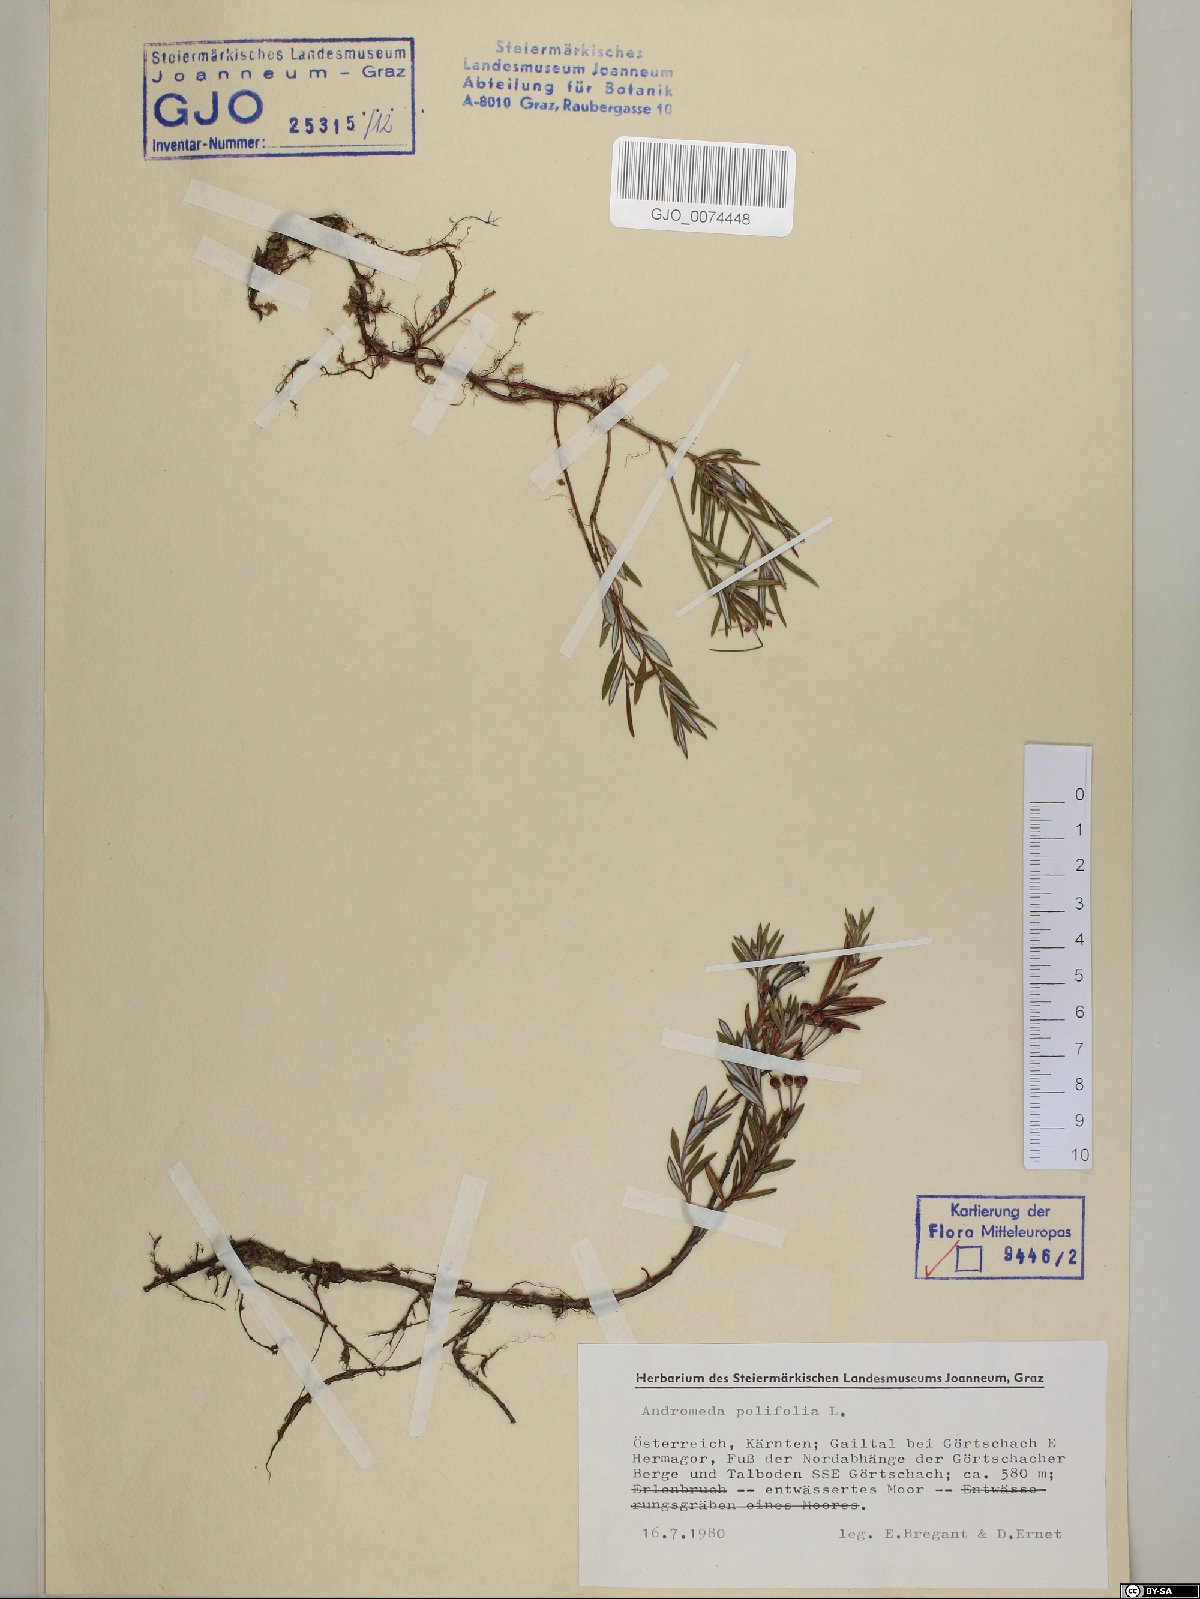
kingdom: Plantae
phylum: Tracheophyta
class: Magnoliopsida
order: Ericales
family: Ericaceae
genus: Andromeda
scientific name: Andromeda polifolia
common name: Bog-rosemary
